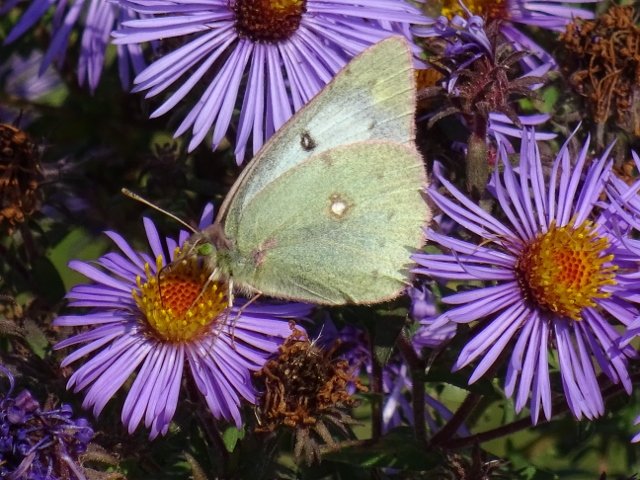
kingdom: Animalia
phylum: Arthropoda
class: Insecta
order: Lepidoptera
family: Pieridae
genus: Colias
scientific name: Colias philodice
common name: Clouded Sulphur
